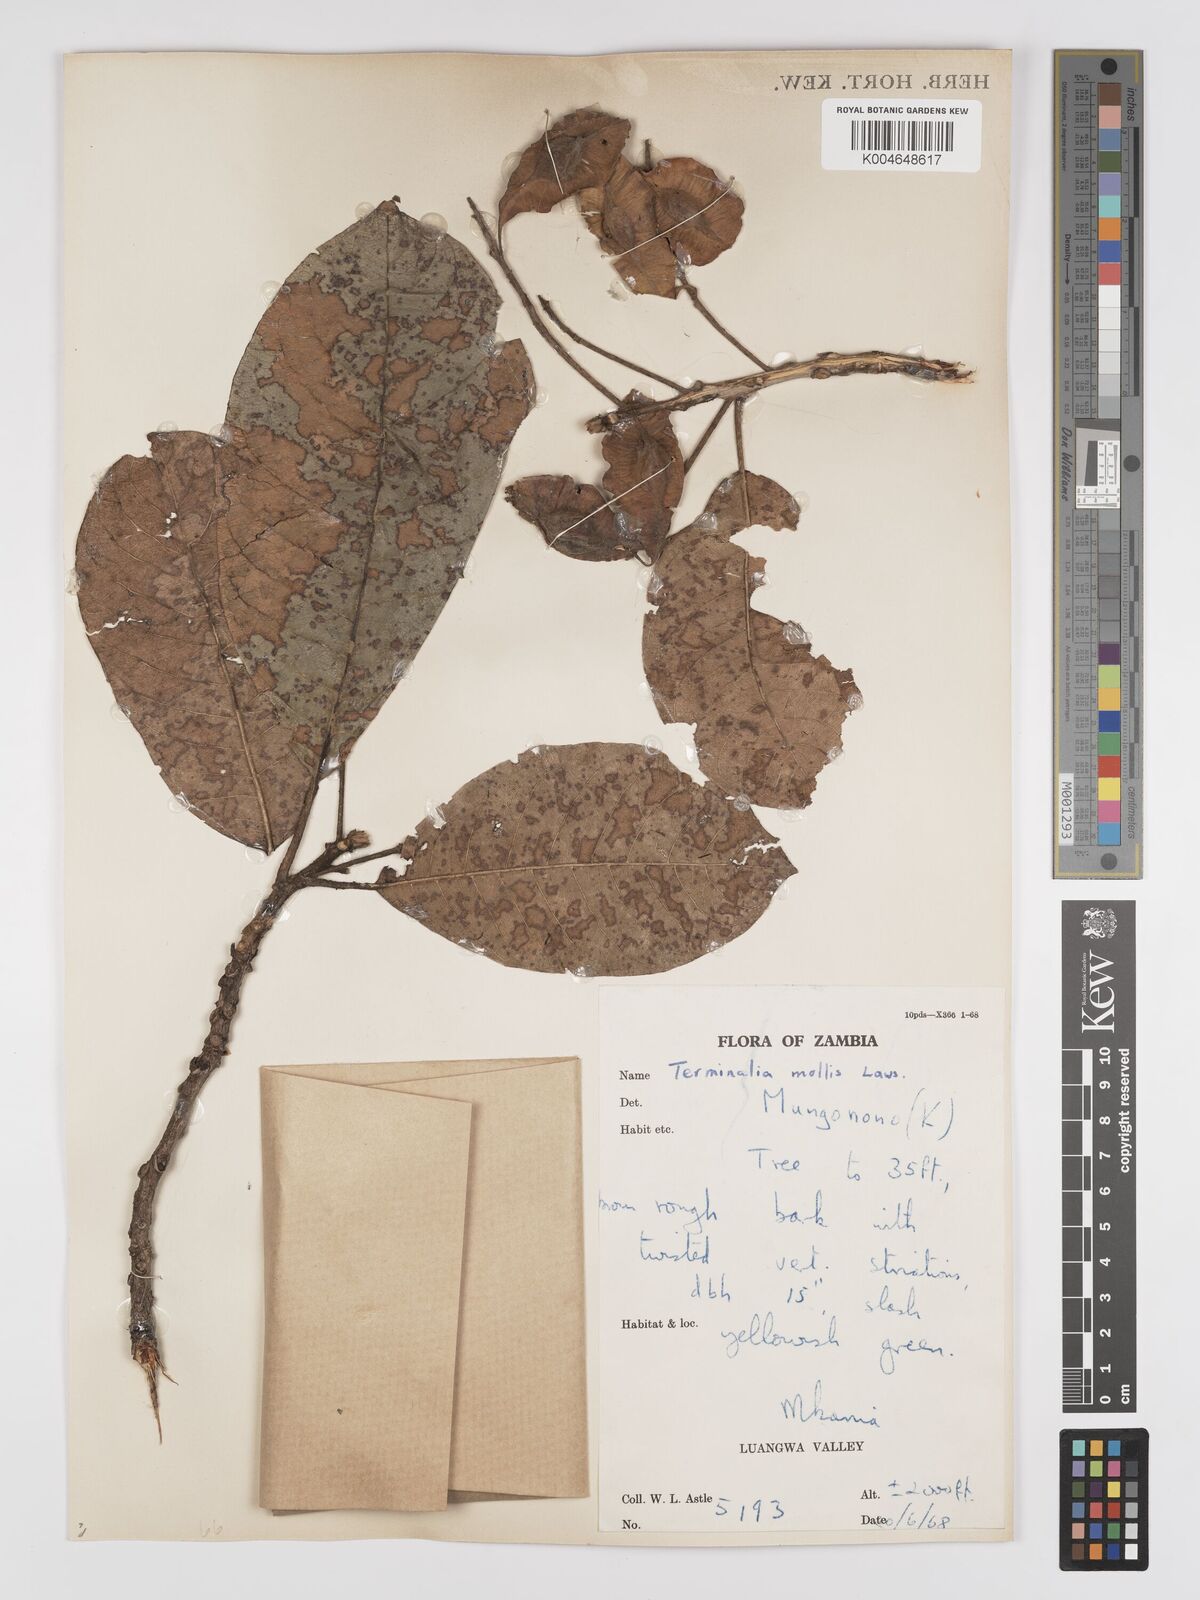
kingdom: Plantae
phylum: Tracheophyta
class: Magnoliopsida
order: Myrtales
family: Combretaceae
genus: Terminalia
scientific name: Terminalia
